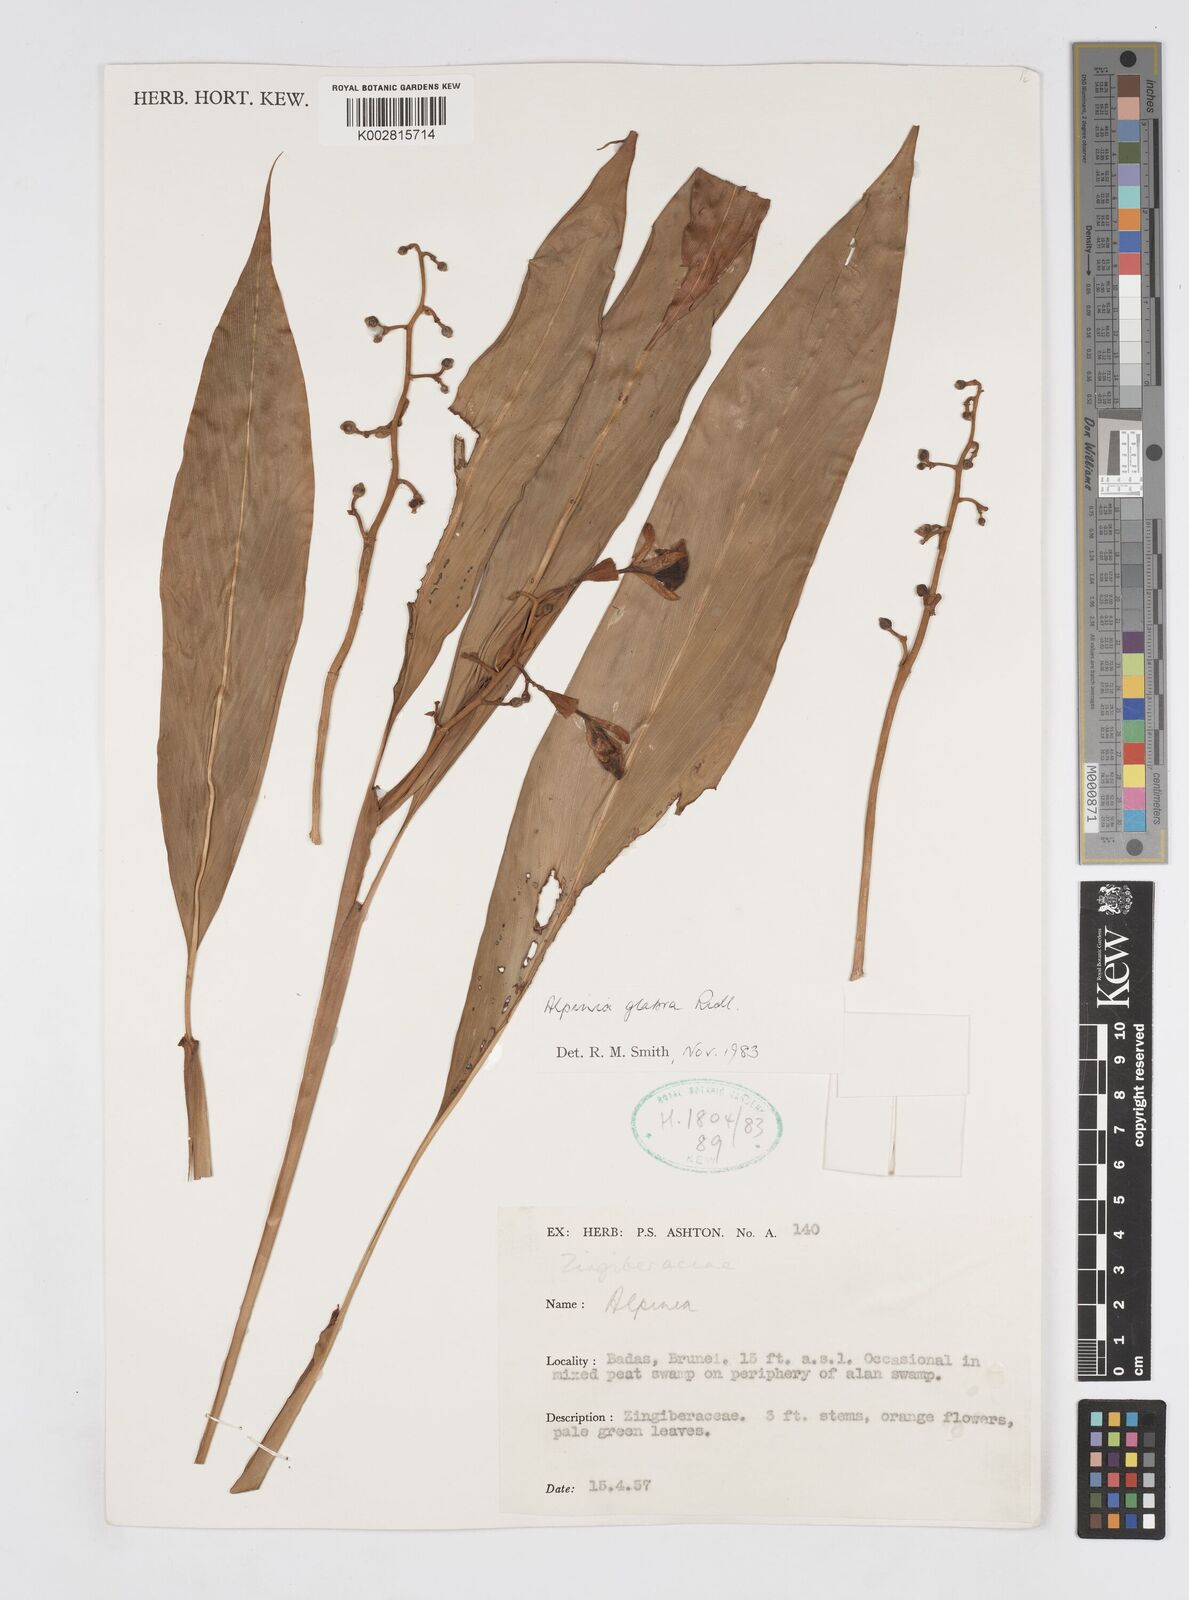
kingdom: Plantae
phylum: Tracheophyta
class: Liliopsida
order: Zingiberales
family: Zingiberaceae
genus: Alpinia
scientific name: Alpinia glabra
